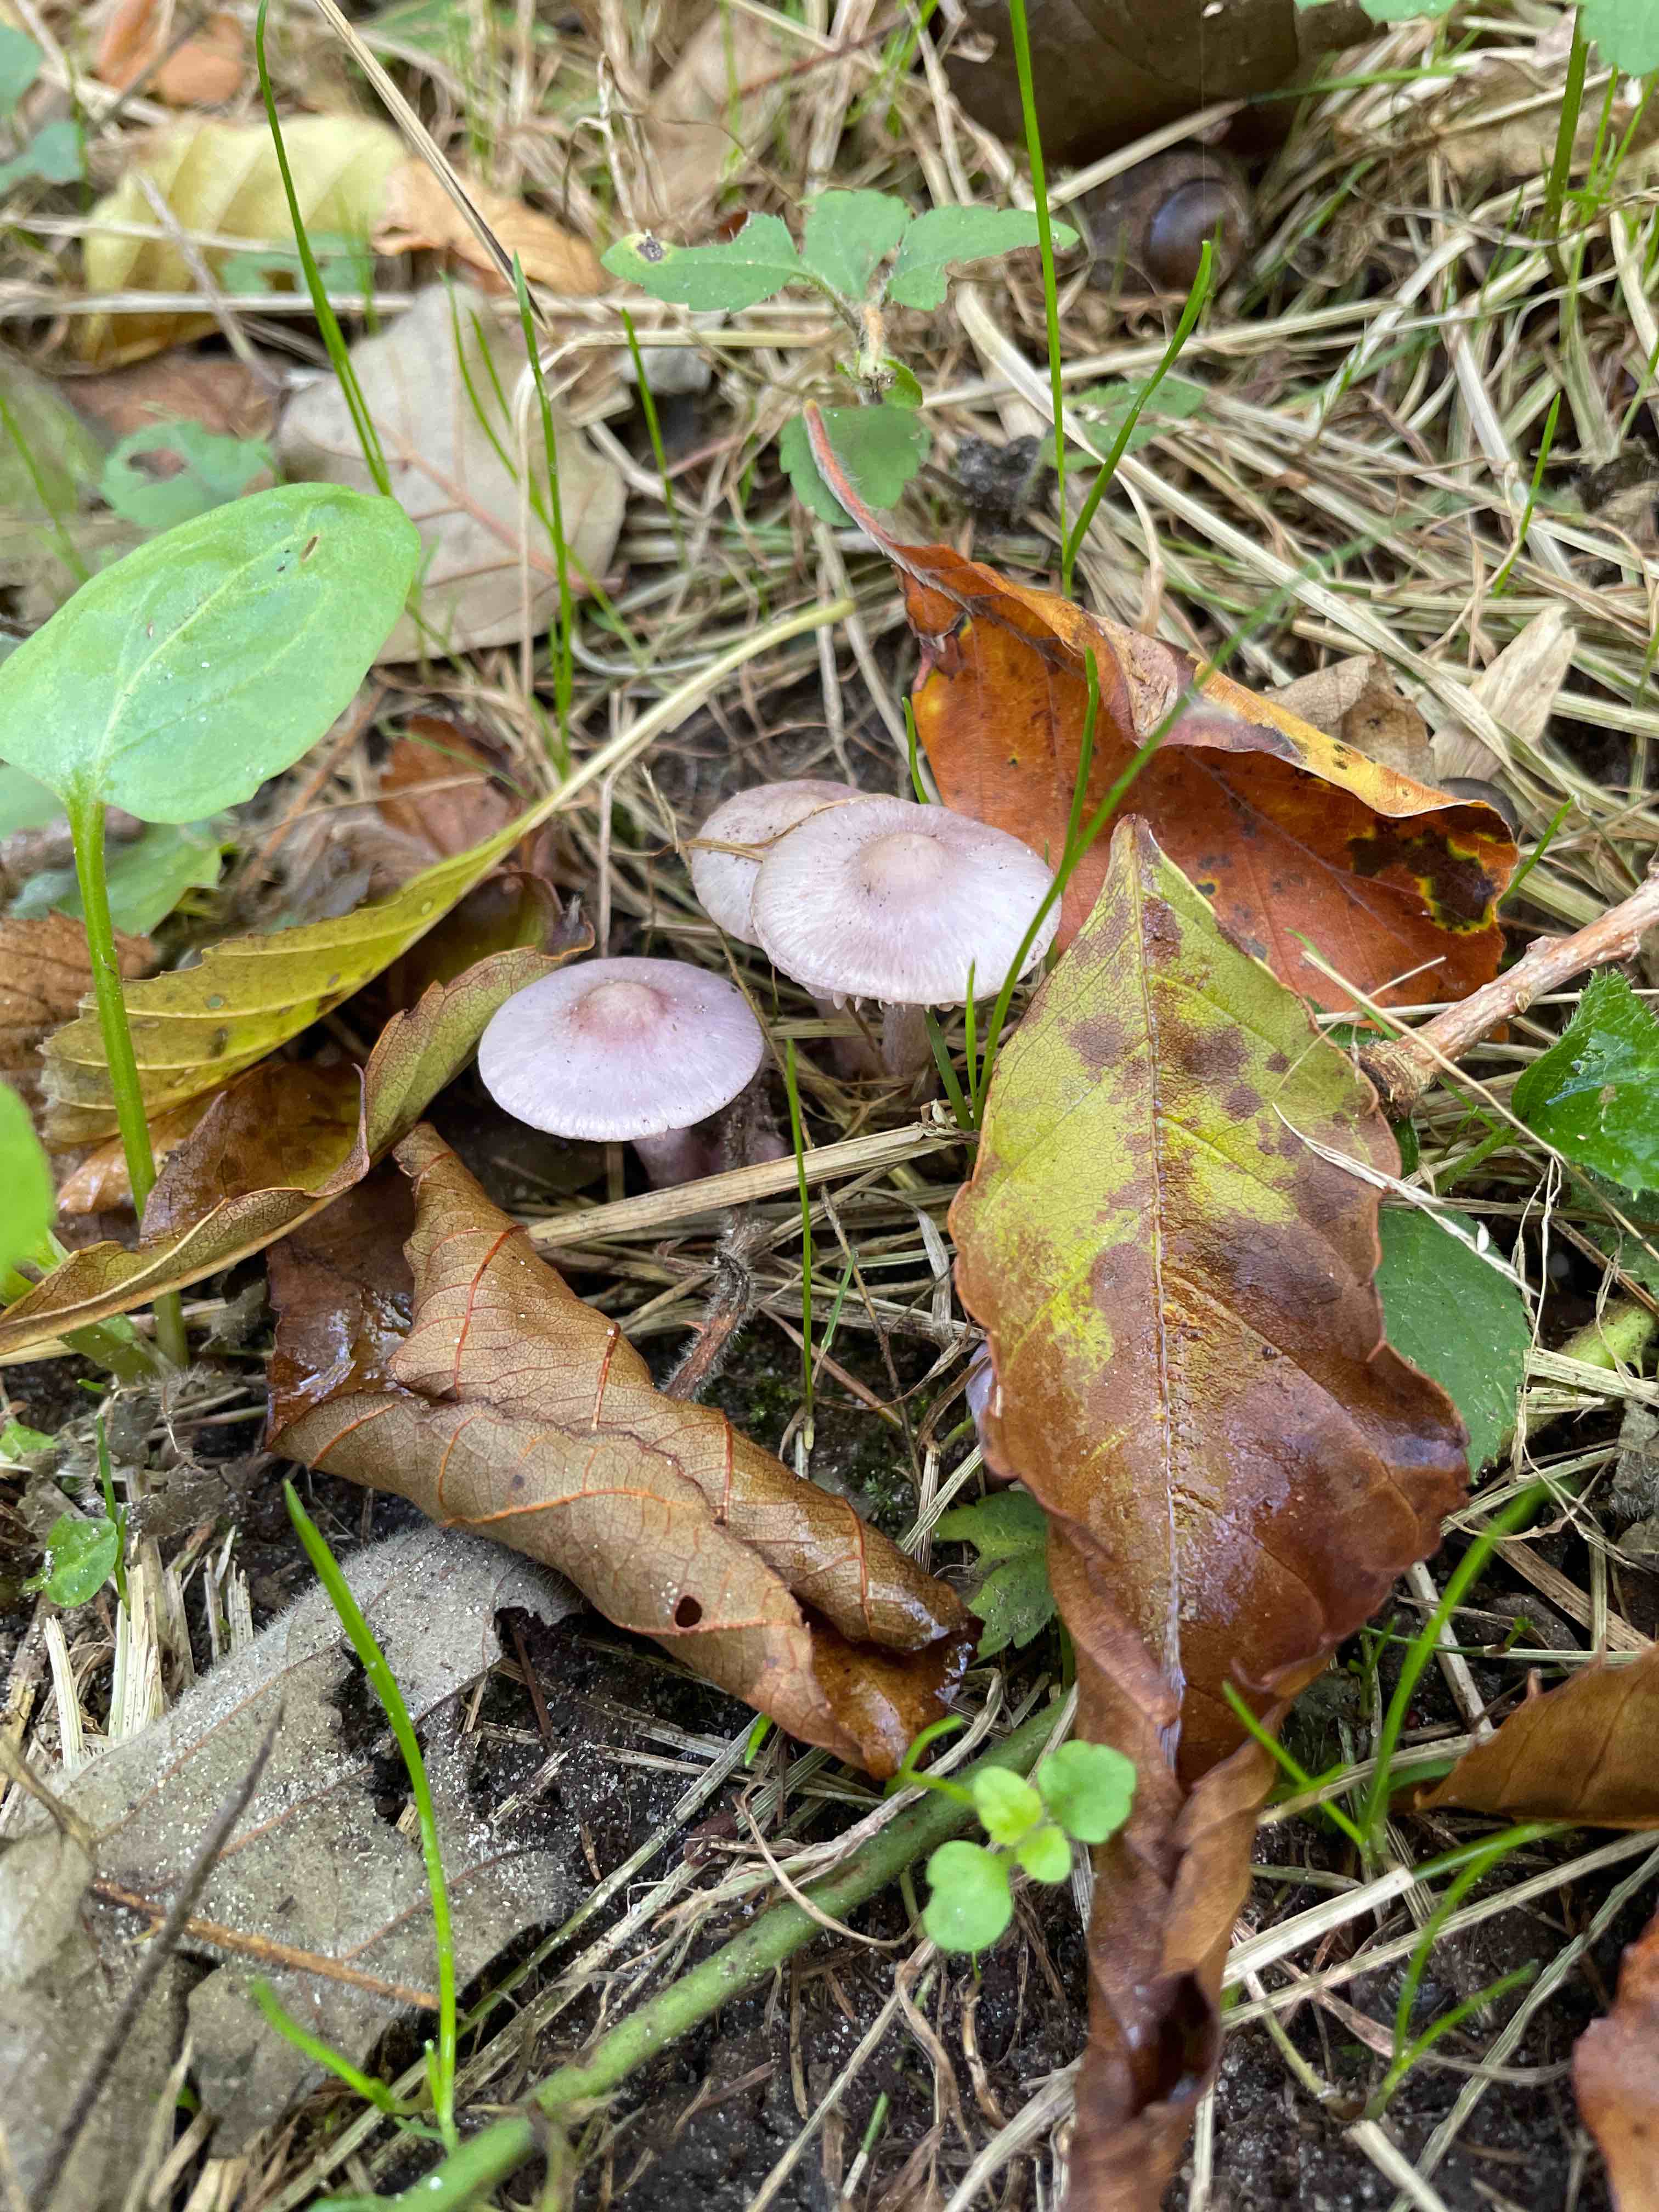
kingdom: Fungi
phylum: Basidiomycota
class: Agaricomycetes
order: Agaricales
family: Inocybaceae
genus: Inocybe
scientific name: Inocybe geophylla
